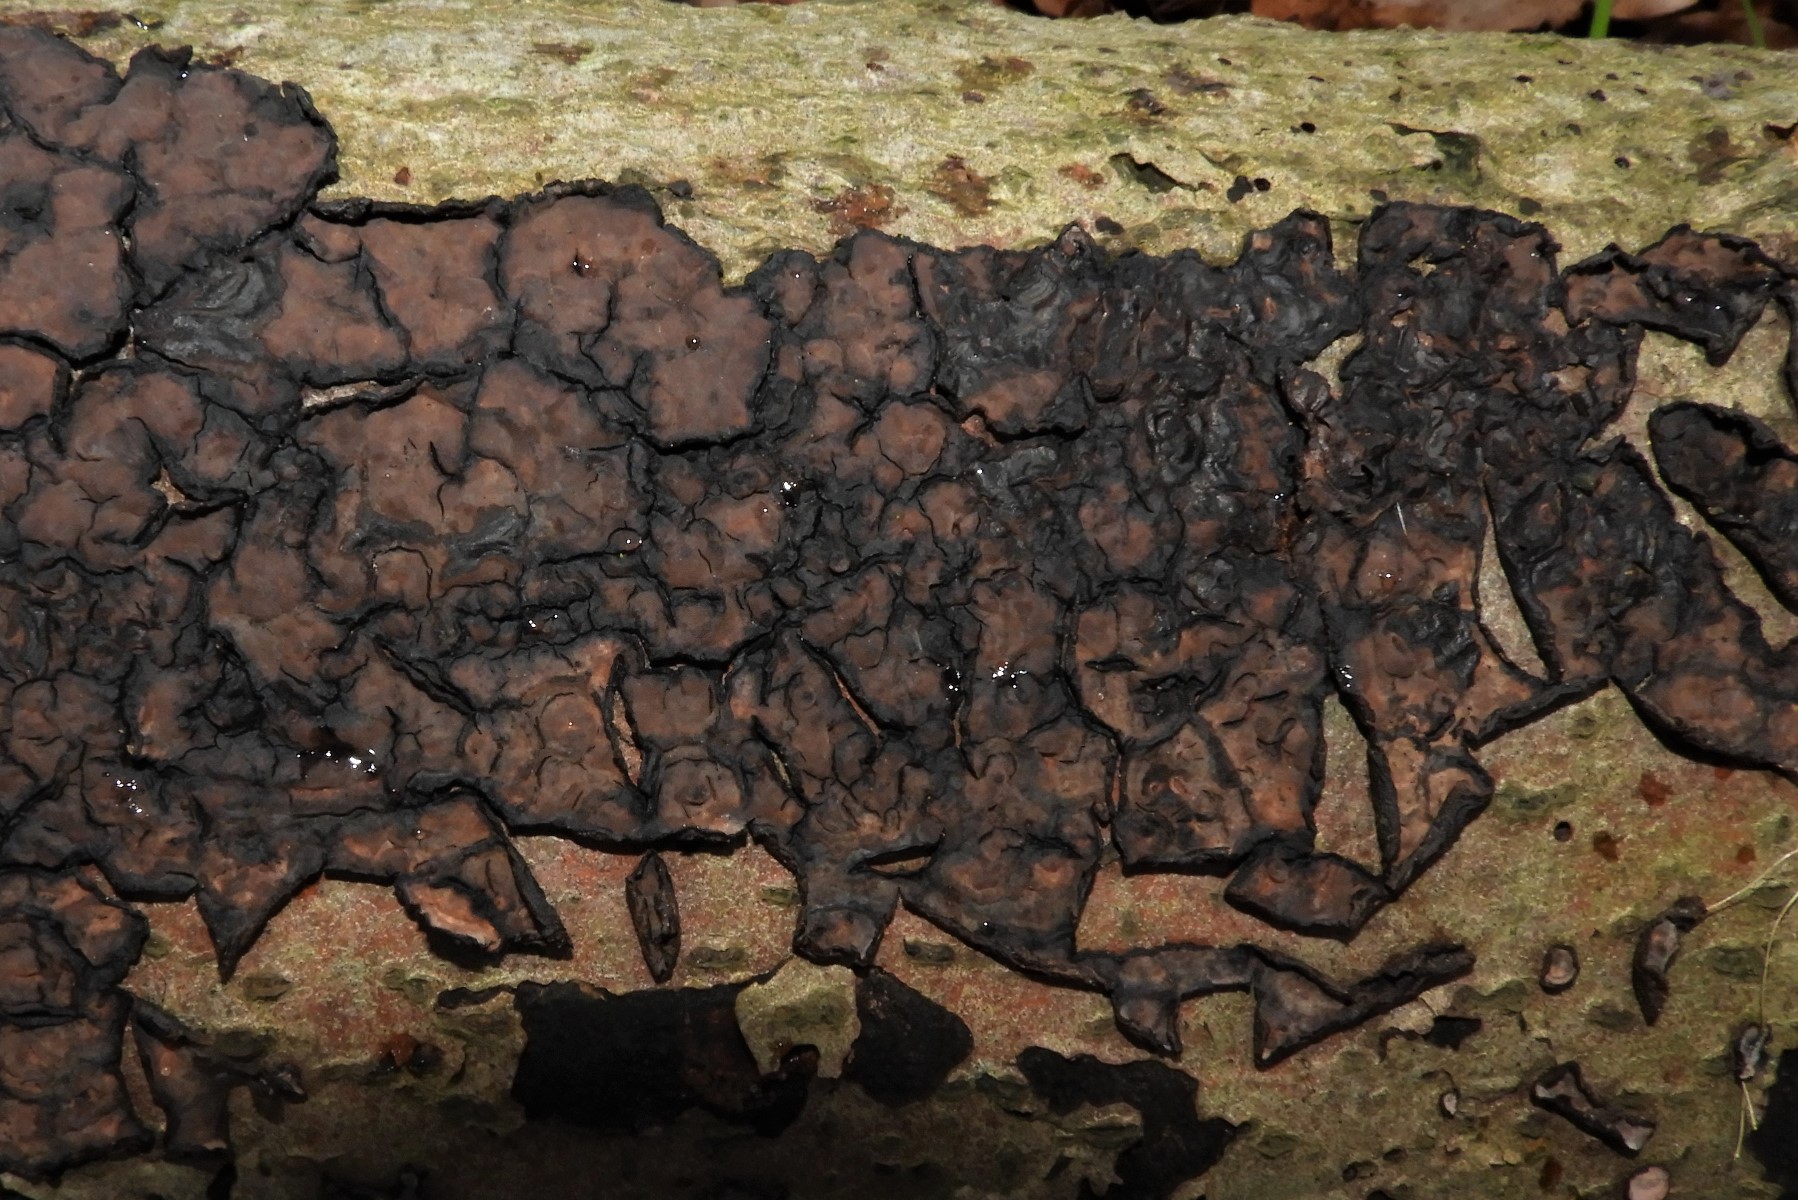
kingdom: Fungi
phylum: Basidiomycota
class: Agaricomycetes
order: Russulales
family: Peniophoraceae
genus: Peniophora
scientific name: Peniophora quercina
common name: ege-voksskind
